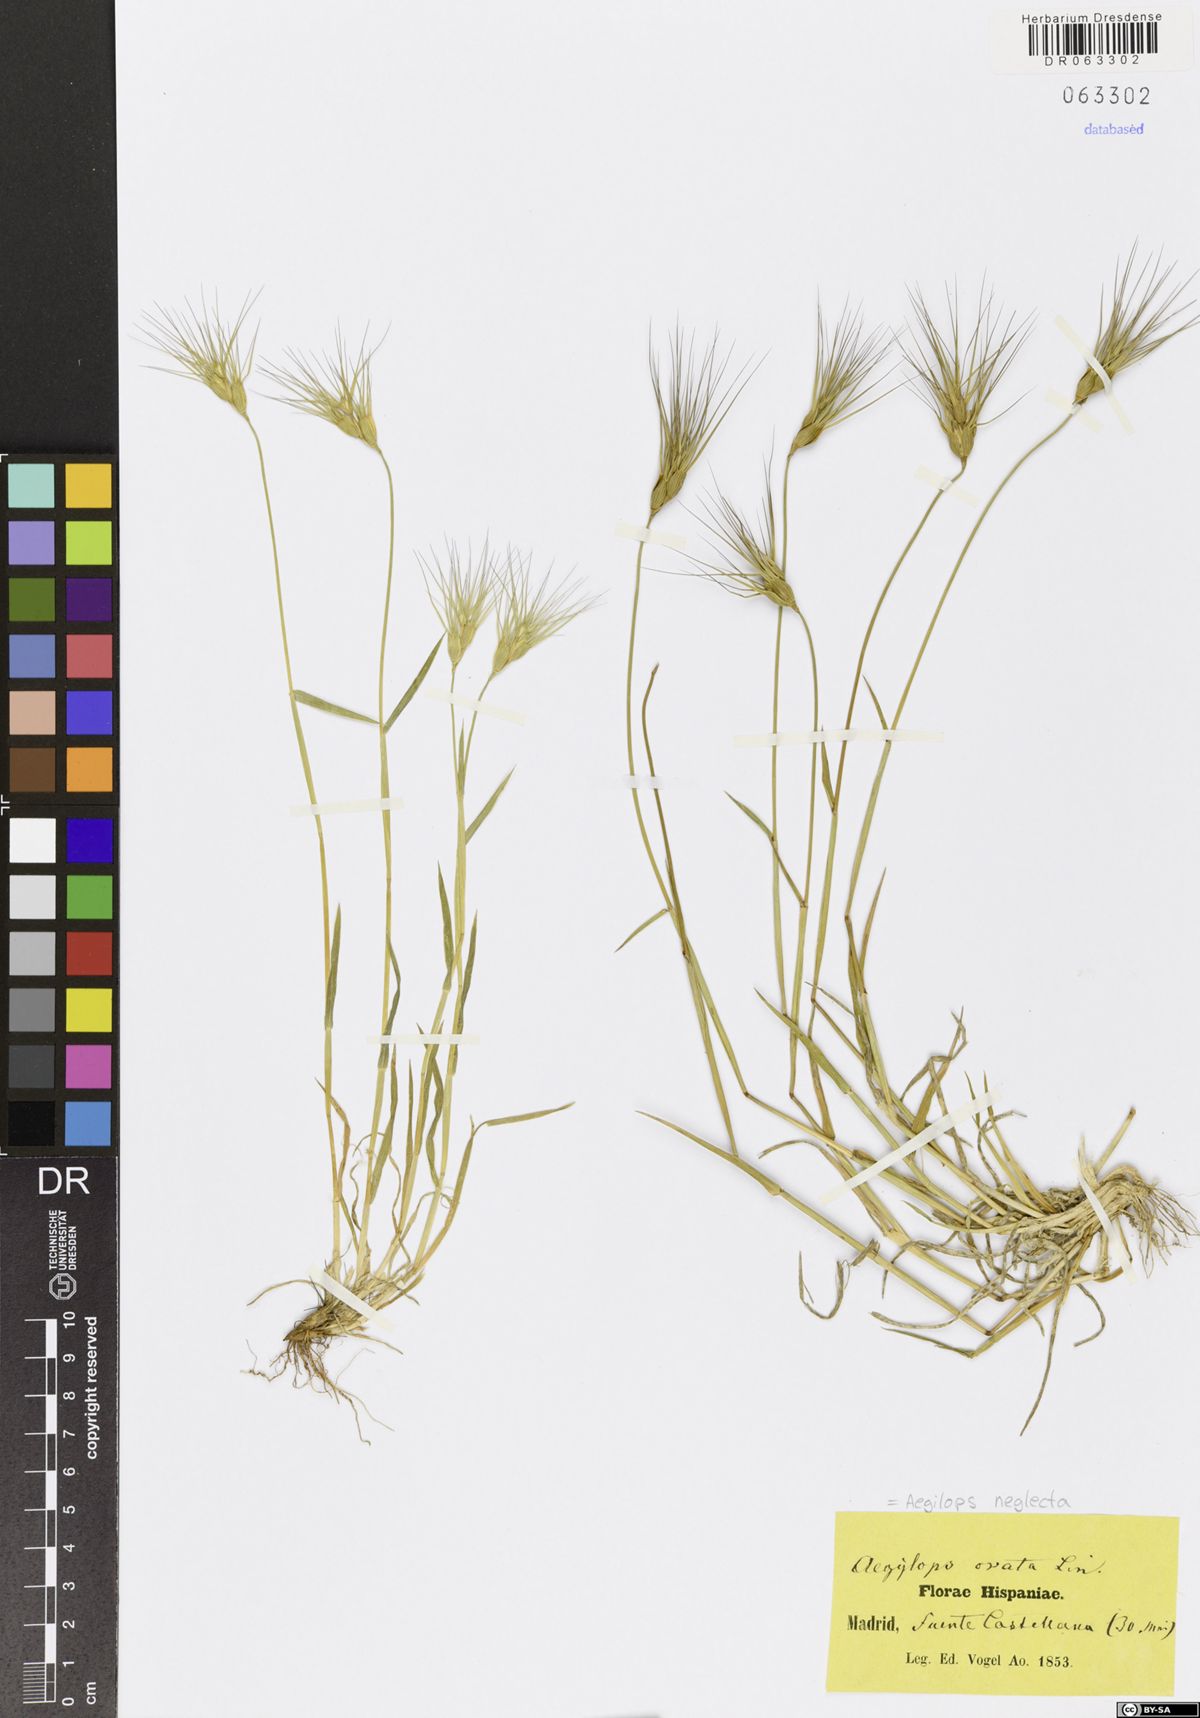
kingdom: Plantae
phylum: Tracheophyta
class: Liliopsida
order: Poales
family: Poaceae
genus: Aegilops
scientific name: Aegilops neglecta
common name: Three-awn goat grass
